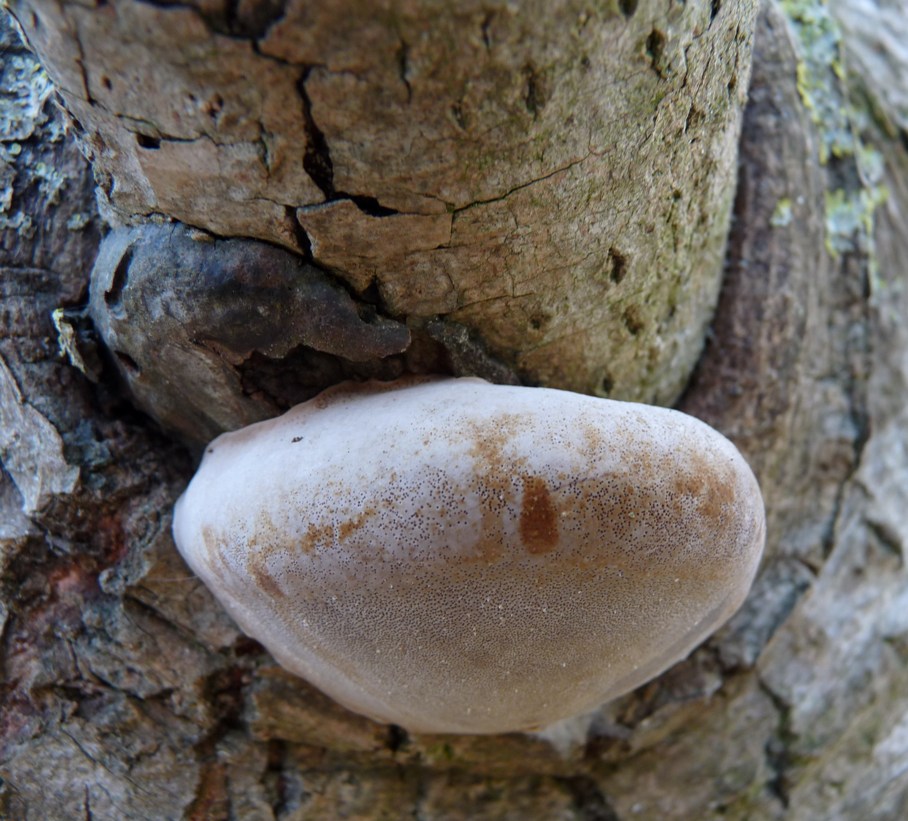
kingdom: Fungi
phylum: Basidiomycota
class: Agaricomycetes
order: Hymenochaetales
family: Hymenochaetaceae
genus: Phellinus
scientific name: Phellinus populicola
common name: poppel-ildporesvamp
